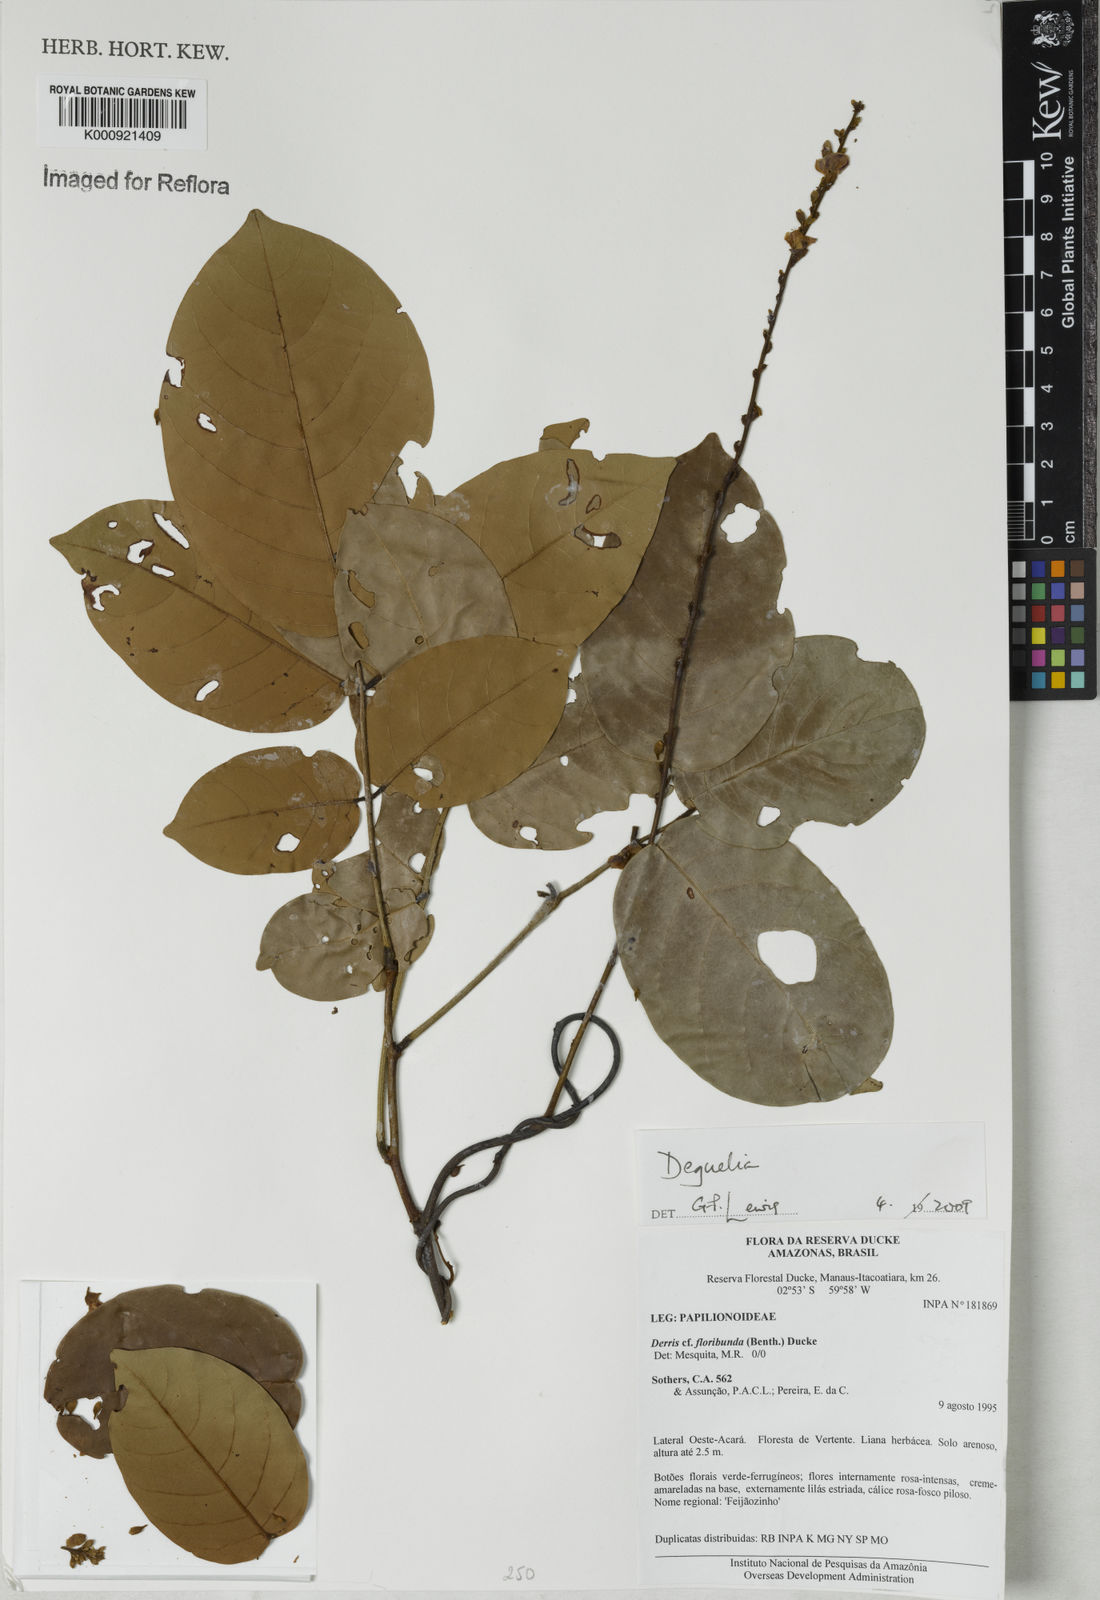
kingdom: Plantae
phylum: Tracheophyta
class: Magnoliopsida
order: Fabales
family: Fabaceae
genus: Deguelia
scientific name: Deguelia
